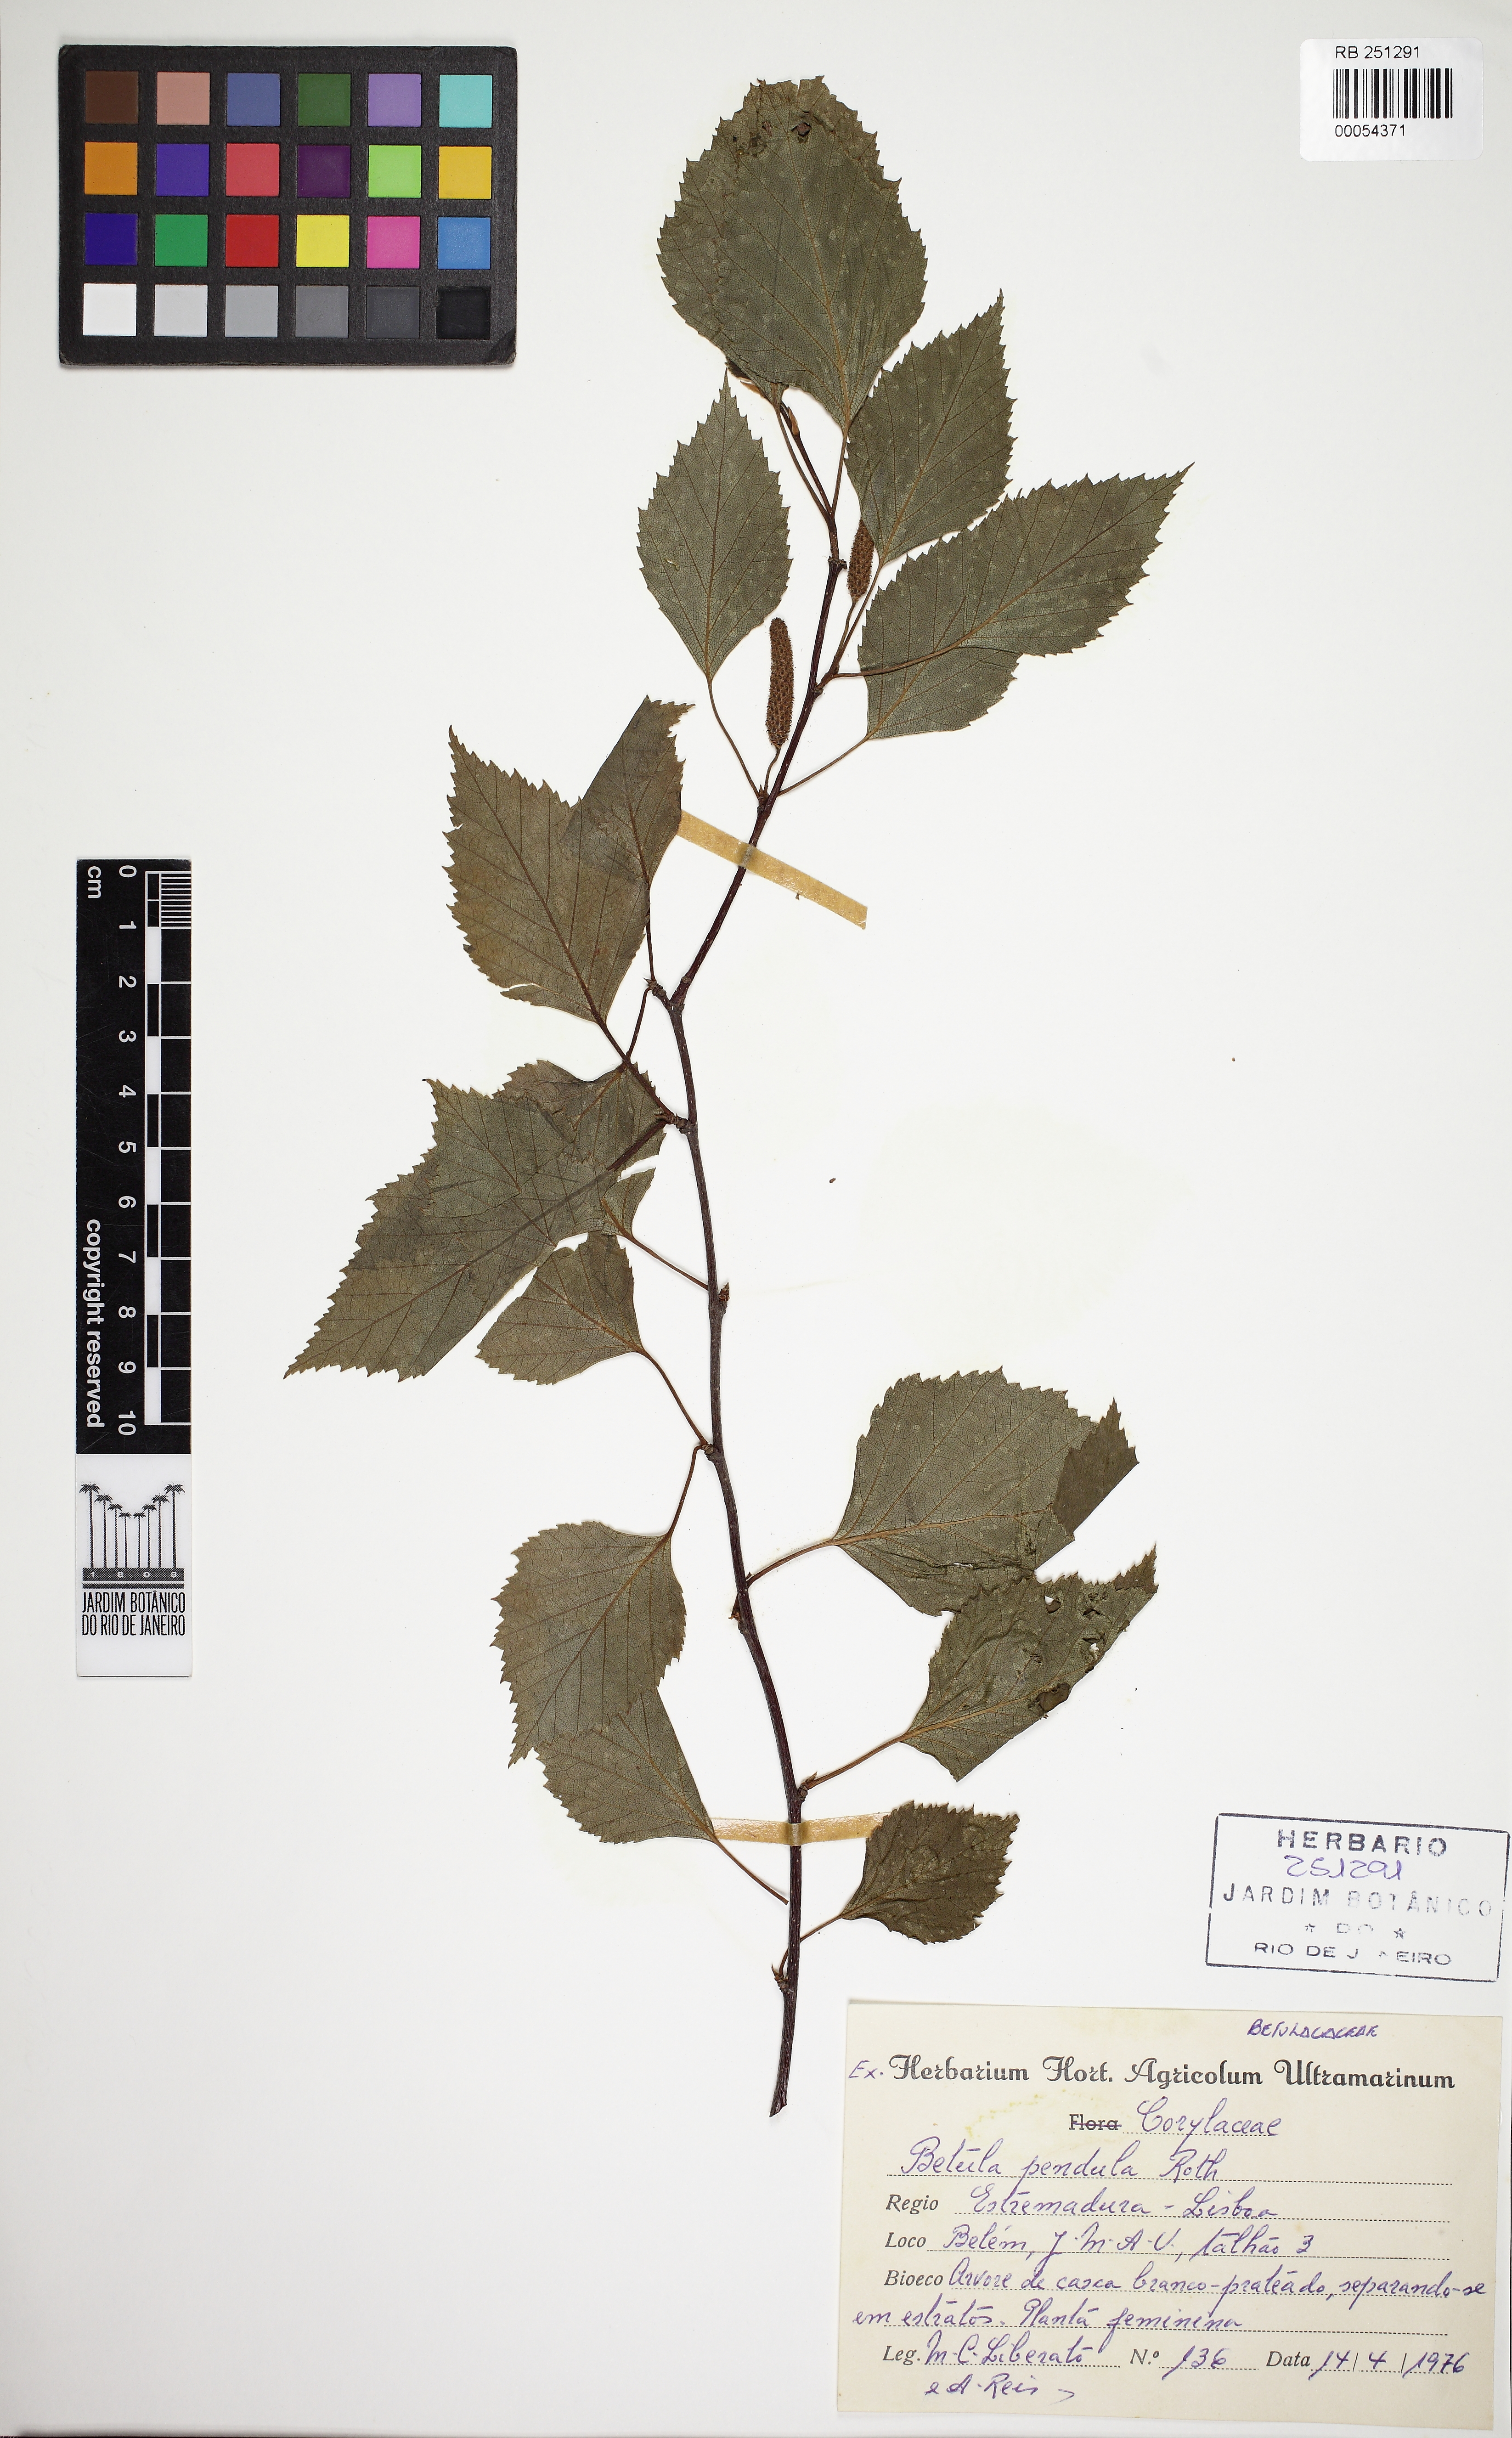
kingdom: Plantae
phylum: Tracheophyta
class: Magnoliopsida
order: Fagales
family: Betulaceae
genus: Betula
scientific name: Betula pendula
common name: Silver birch
